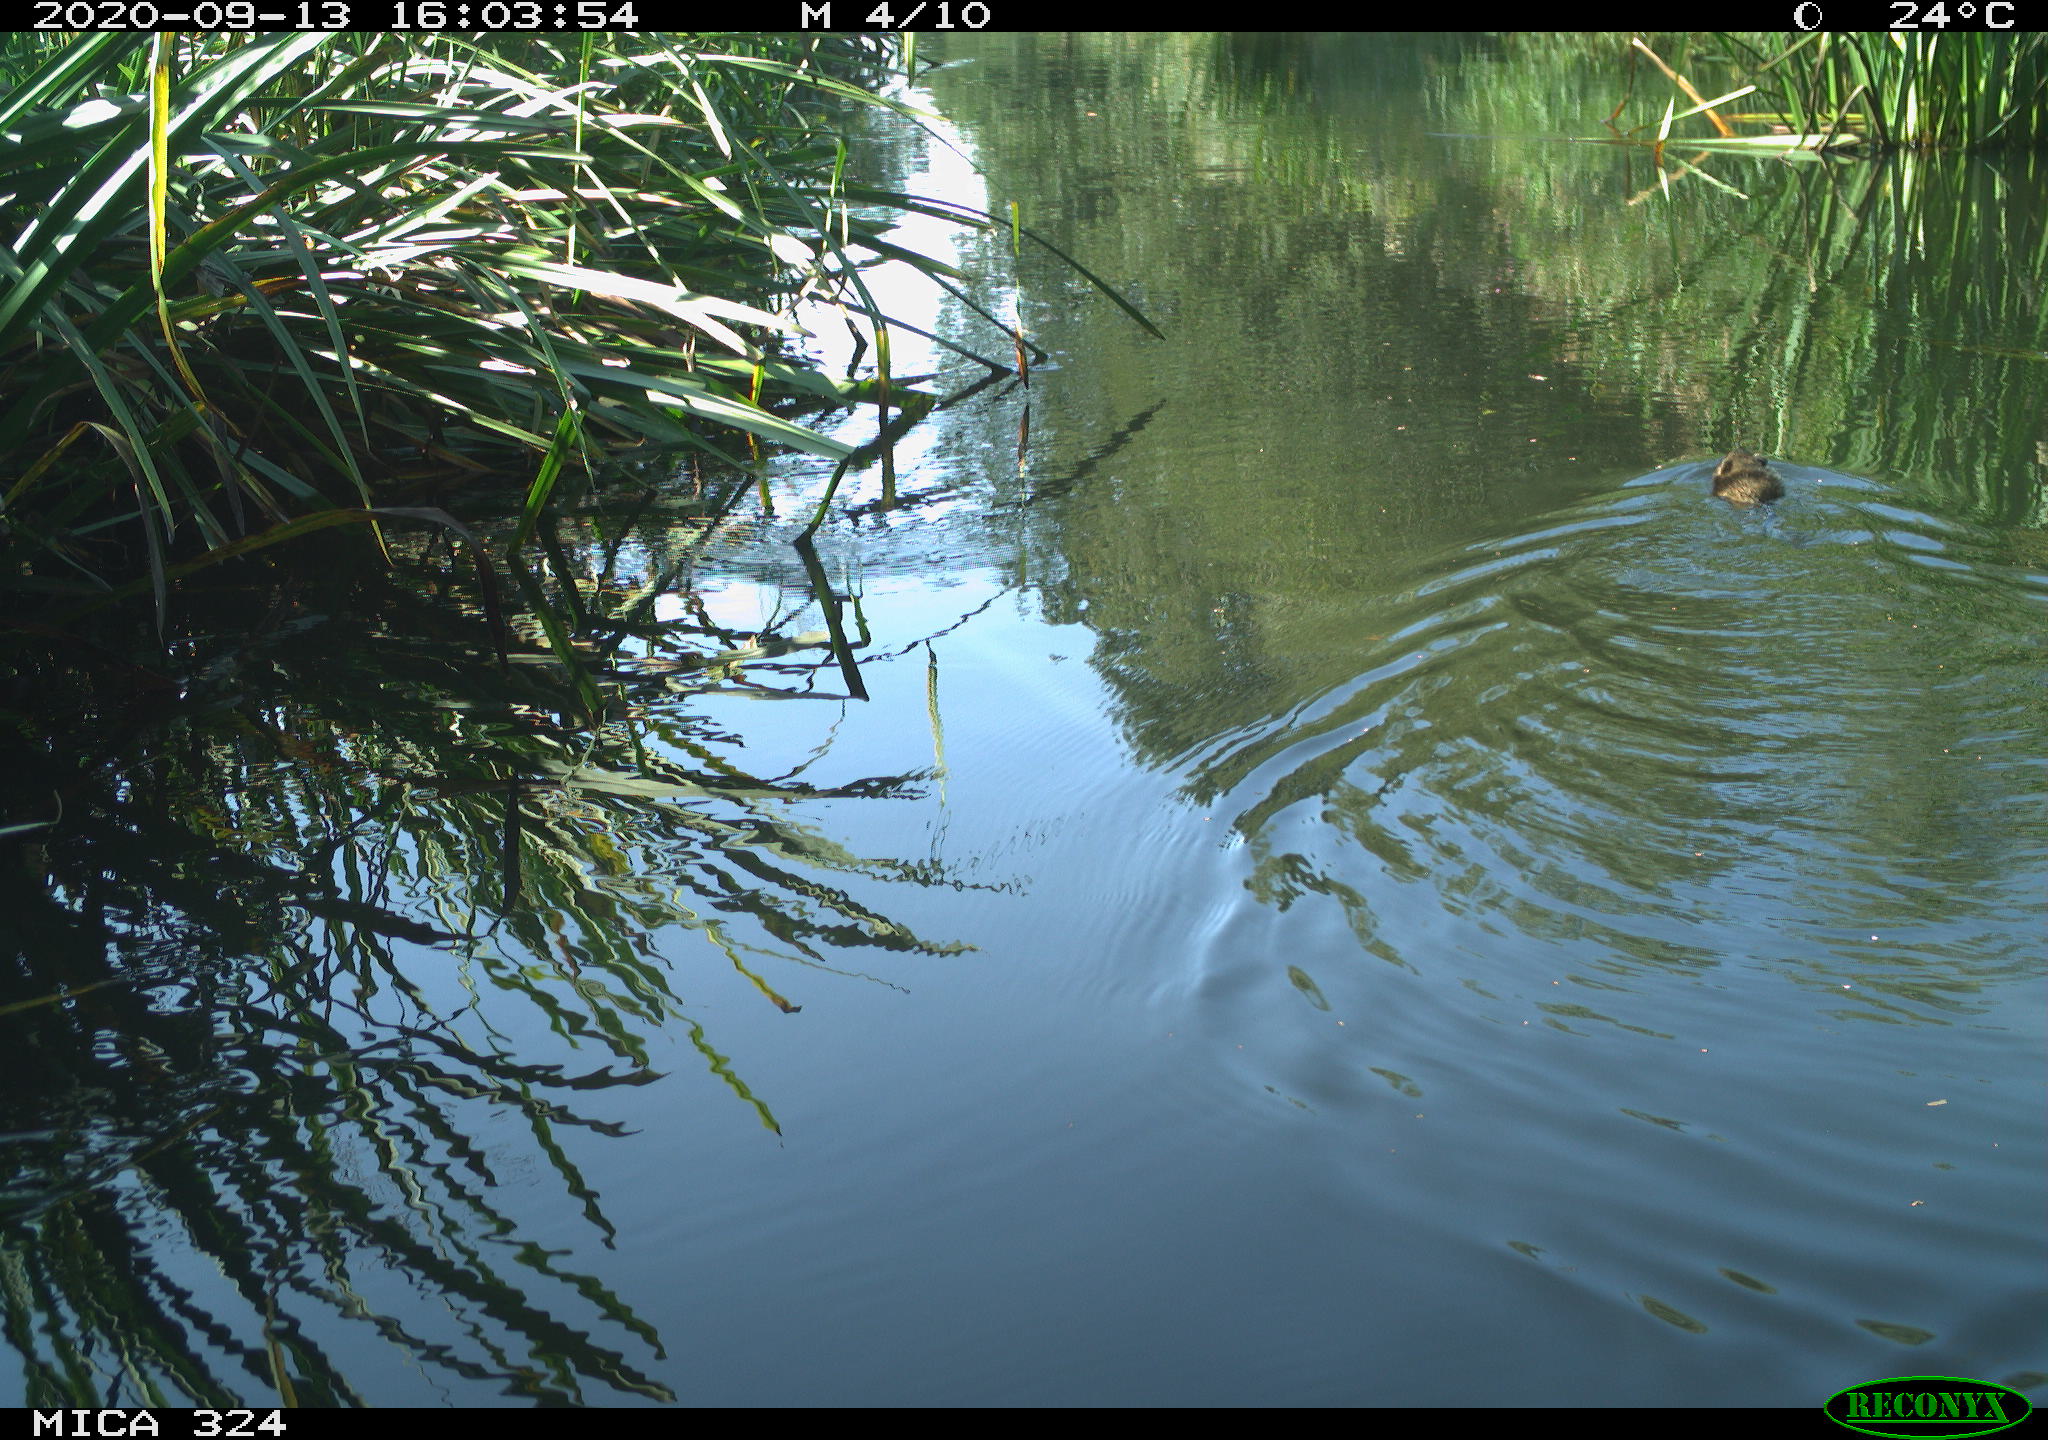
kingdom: Animalia
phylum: Chordata
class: Mammalia
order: Rodentia
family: Cricetidae
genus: Ondatra
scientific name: Ondatra zibethicus
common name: Muskrat
